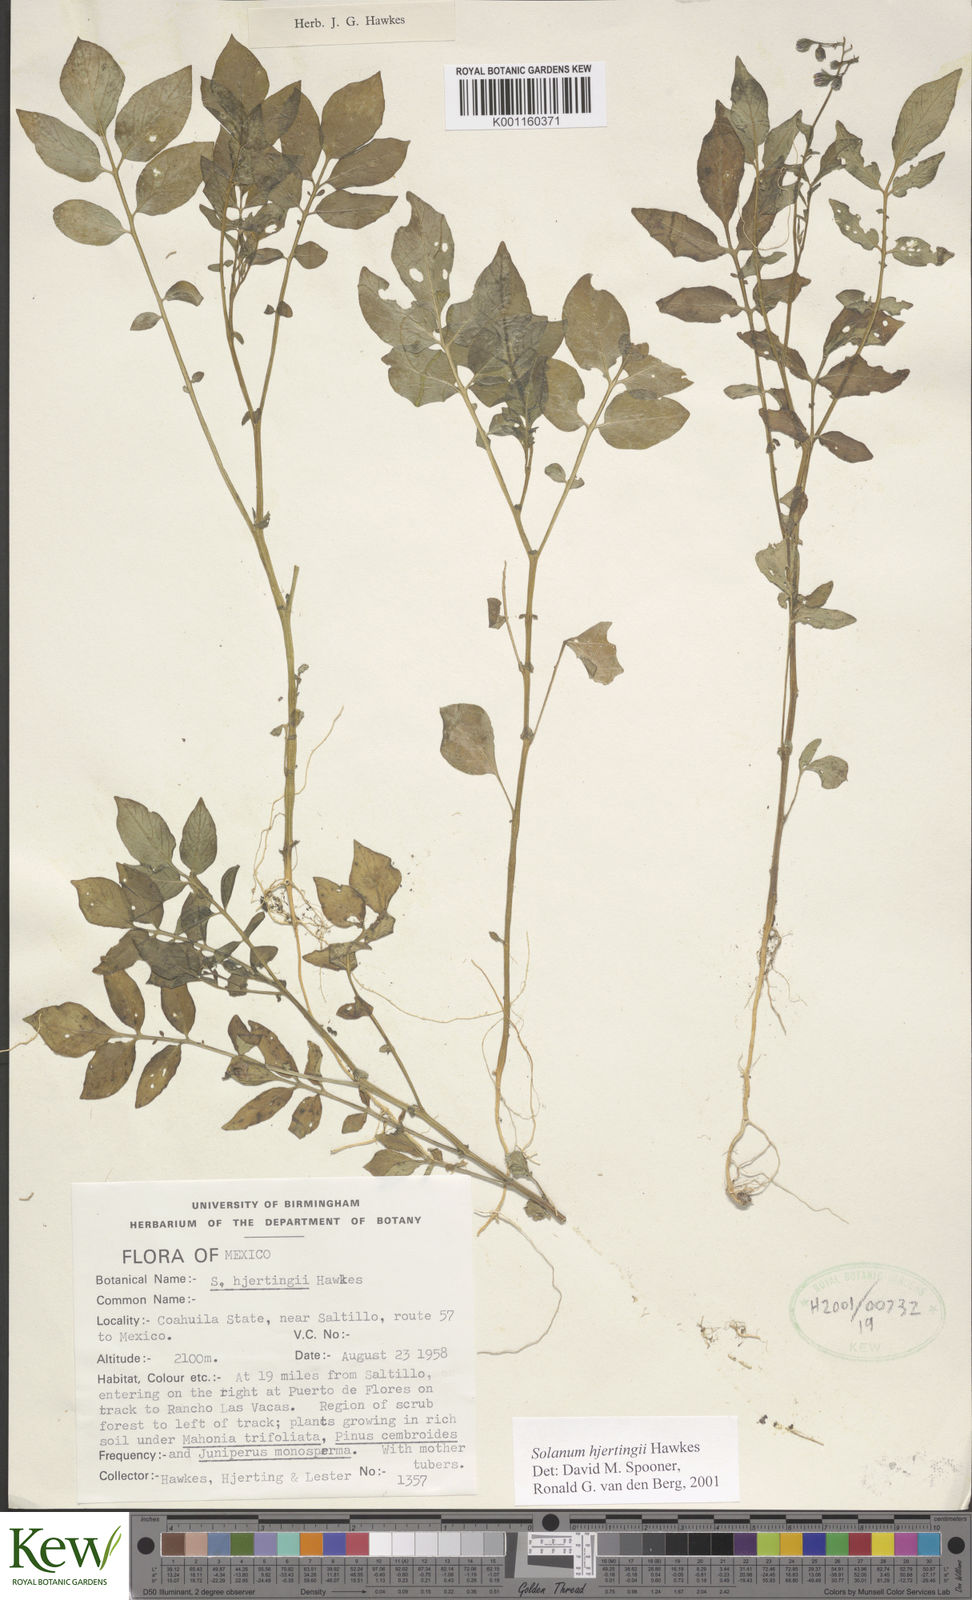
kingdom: Plantae
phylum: Tracheophyta
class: Magnoliopsida
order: Solanales
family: Solanaceae
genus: Solanum
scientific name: Solanum hjertingii
